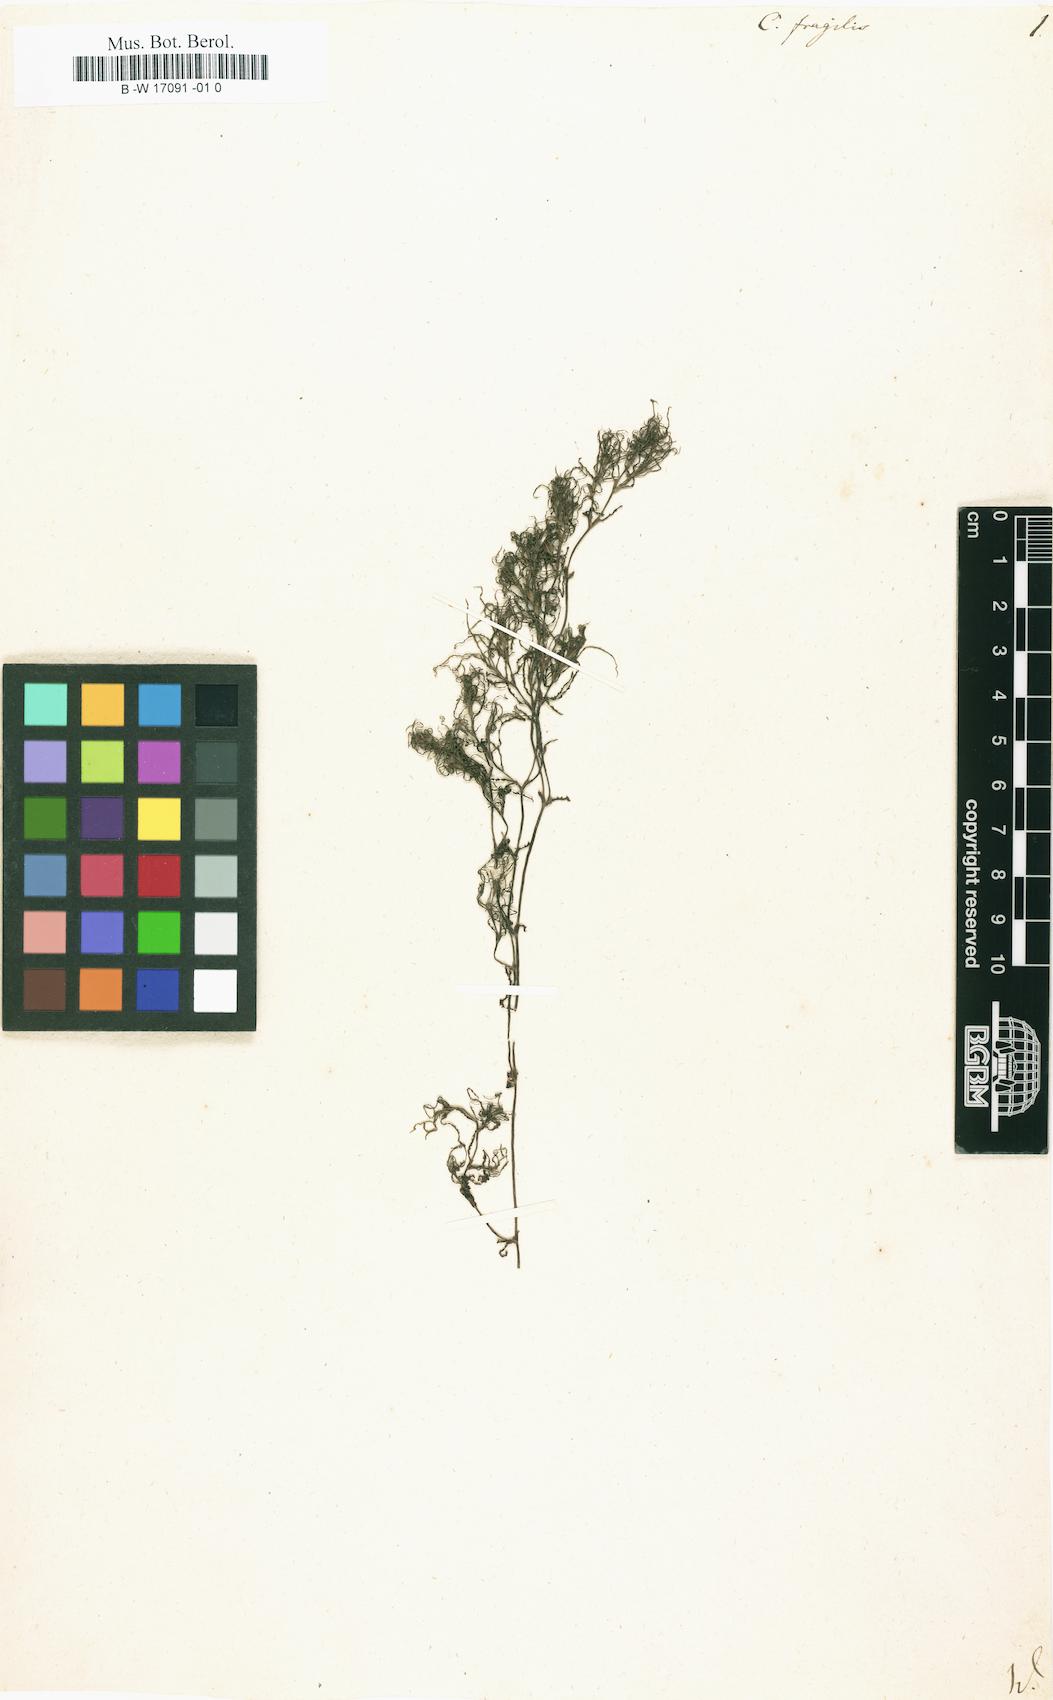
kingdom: Plantae
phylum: Tracheophyta
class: Liliopsida
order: Alismatales
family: Hydrocharitaceae
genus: Najas
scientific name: Najas minor
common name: Brittle naiad
